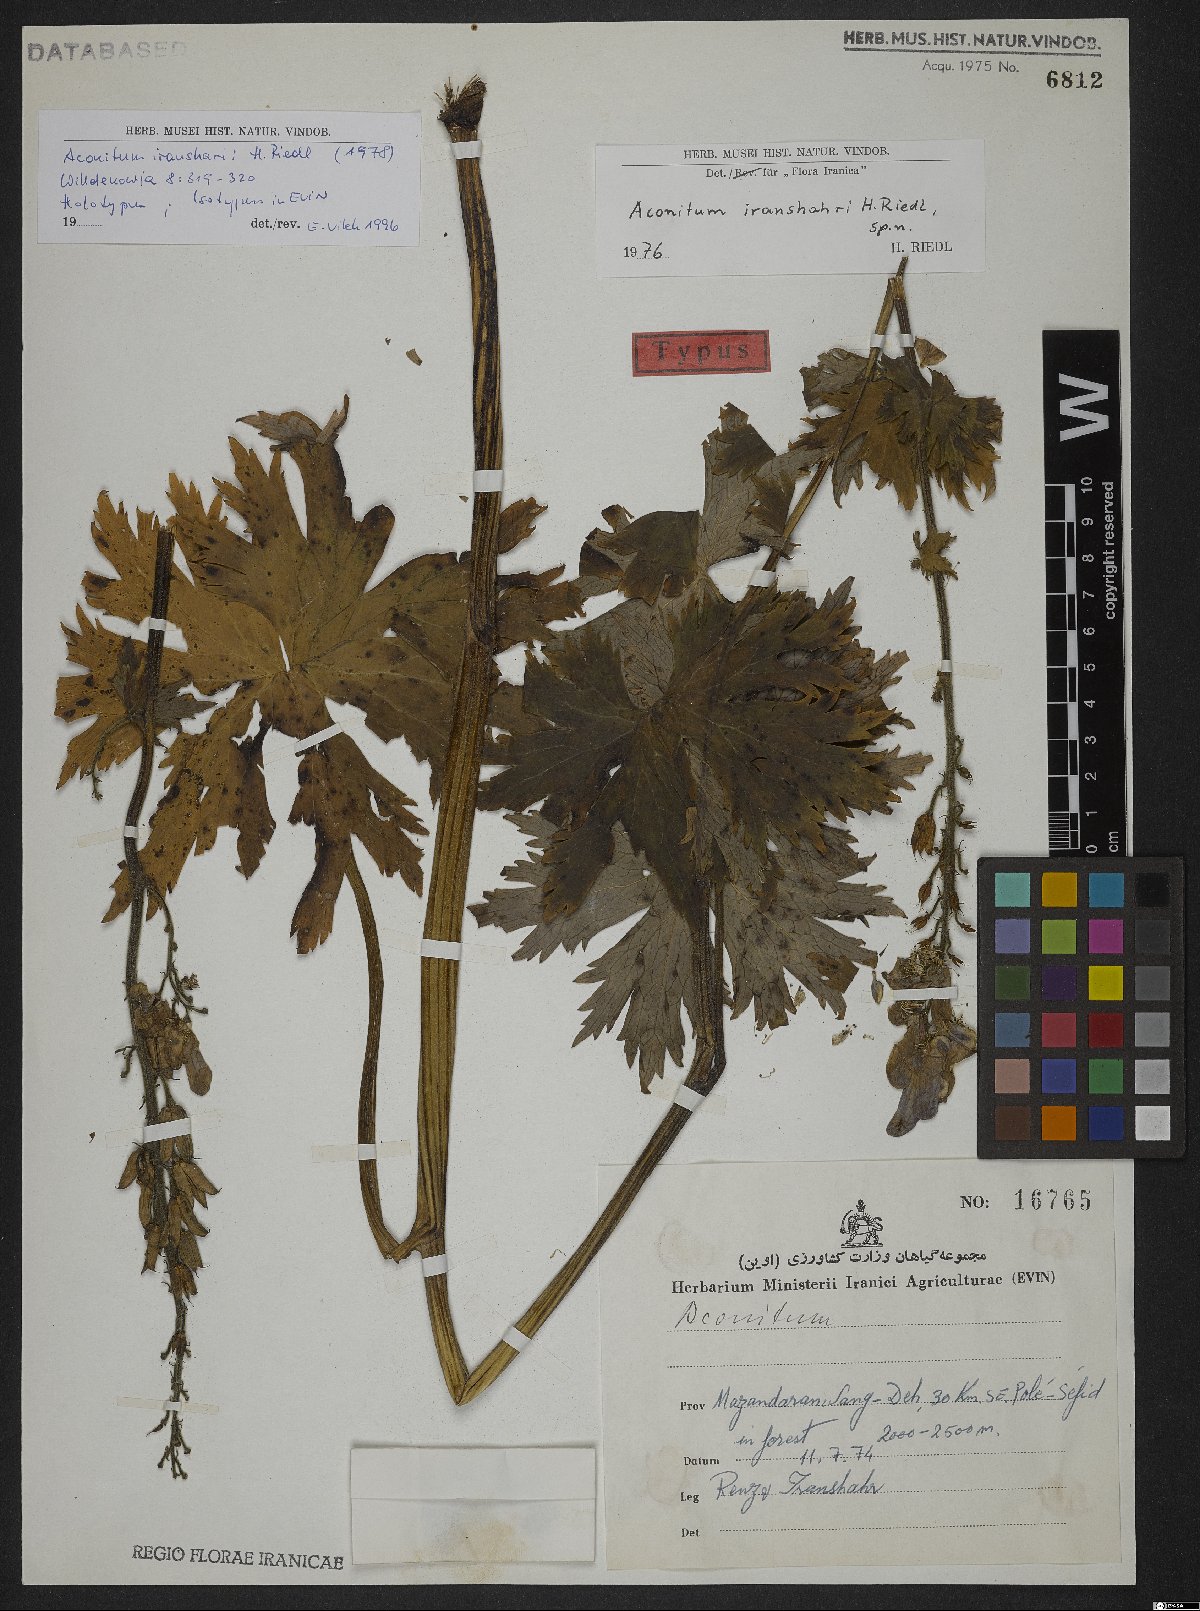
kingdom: Plantae
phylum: Tracheophyta
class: Magnoliopsida
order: Ranunculales
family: Ranunculaceae
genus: Aconitum
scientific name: Aconitum iranshahrii
